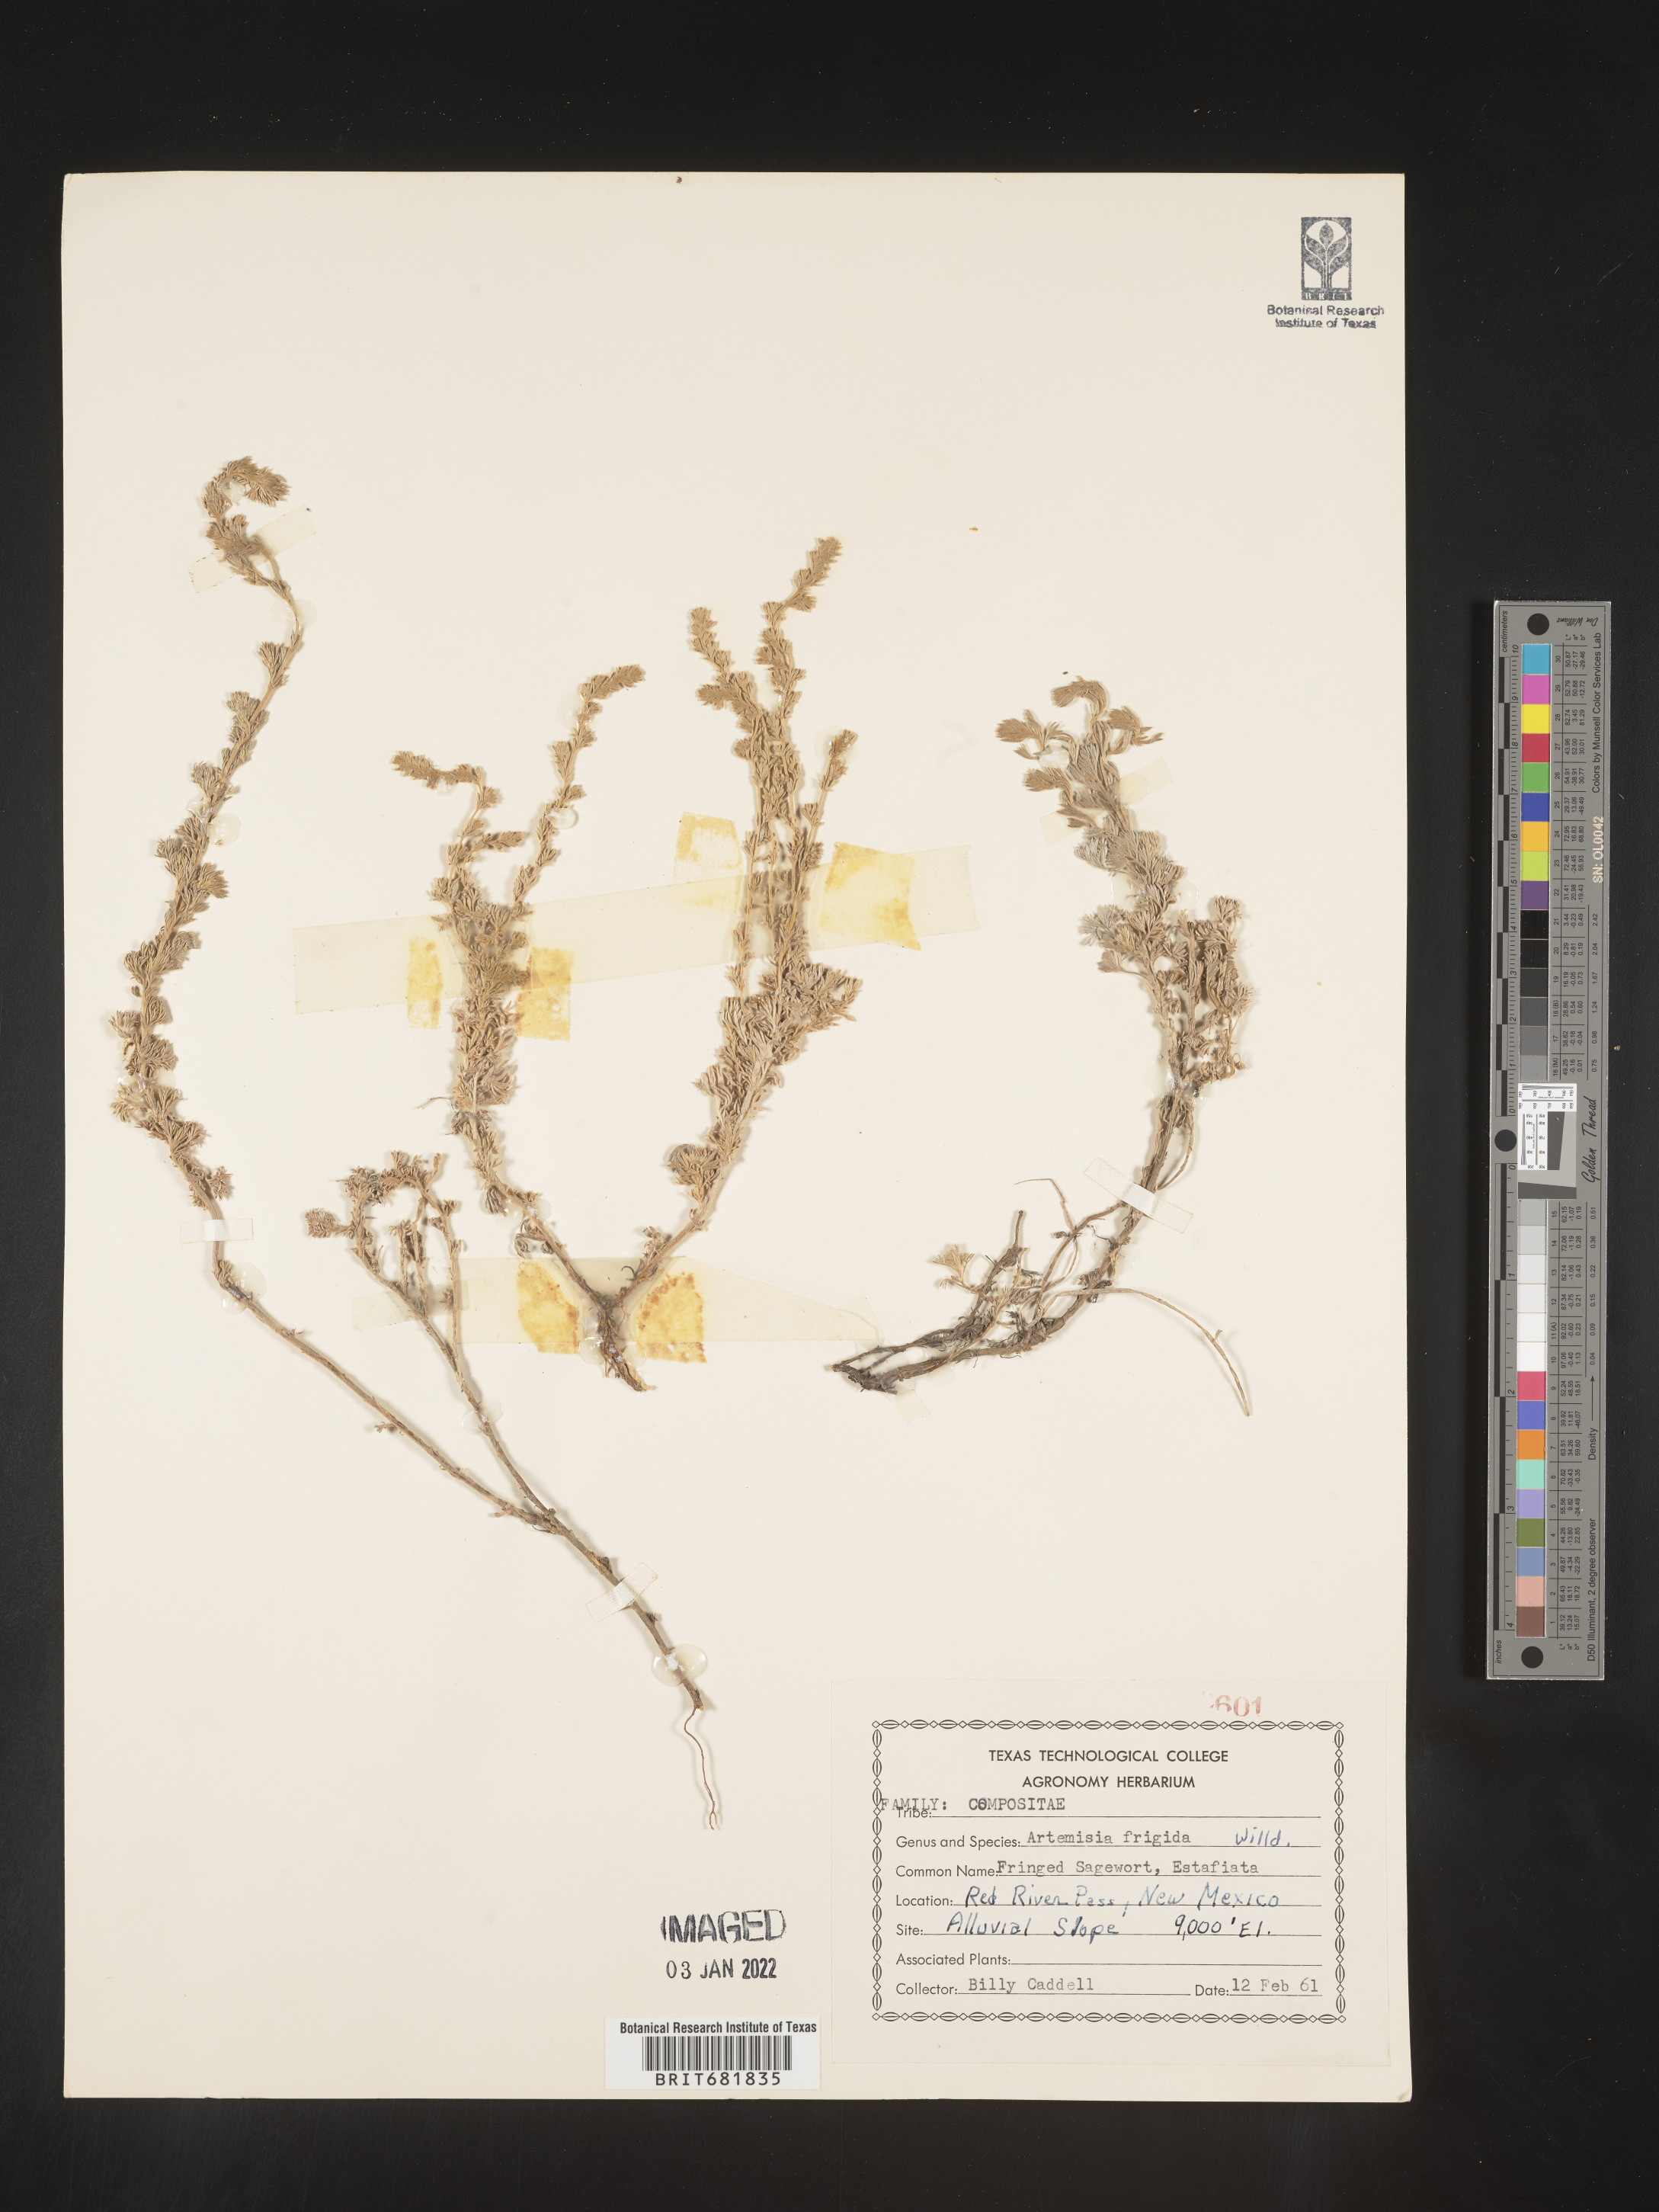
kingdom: Plantae
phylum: Tracheophyta
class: Magnoliopsida
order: Asterales
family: Asteraceae
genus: Artemisia
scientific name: Artemisia frigida
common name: Prairie sagewort
